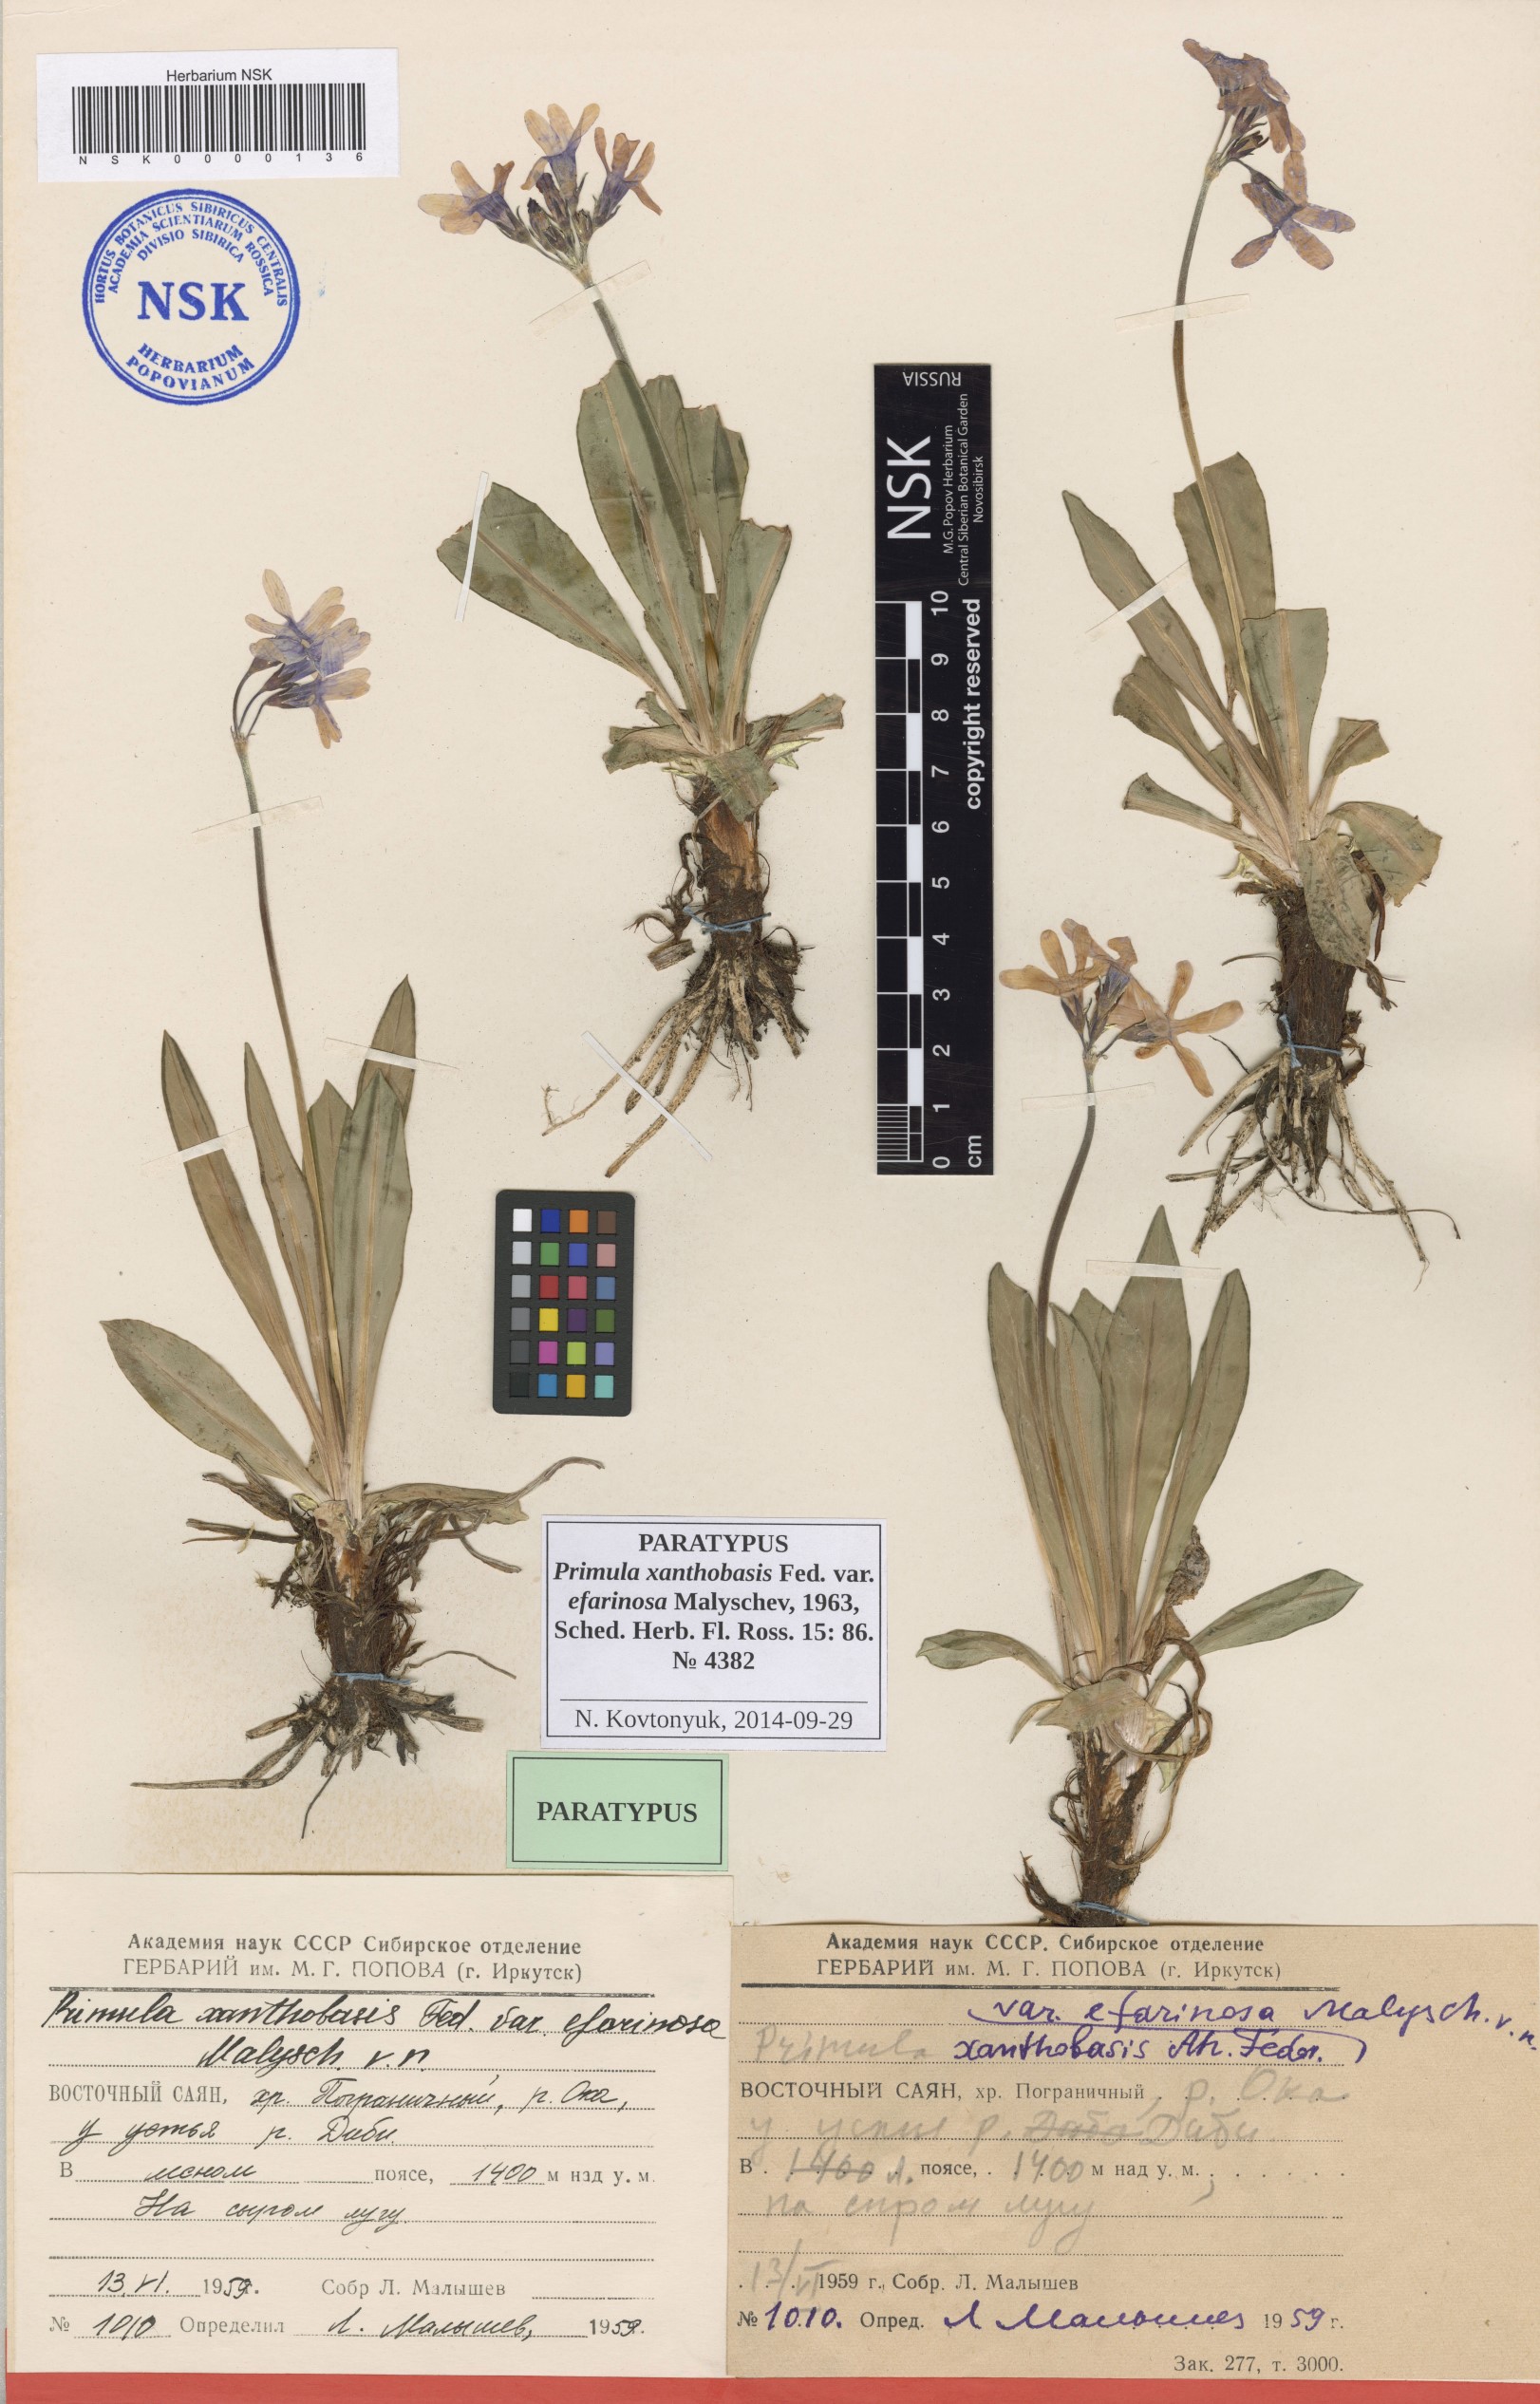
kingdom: Plantae
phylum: Tracheophyta
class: Magnoliopsida
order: Ericales
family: Primulaceae
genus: Primula
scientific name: Primula nivalis
